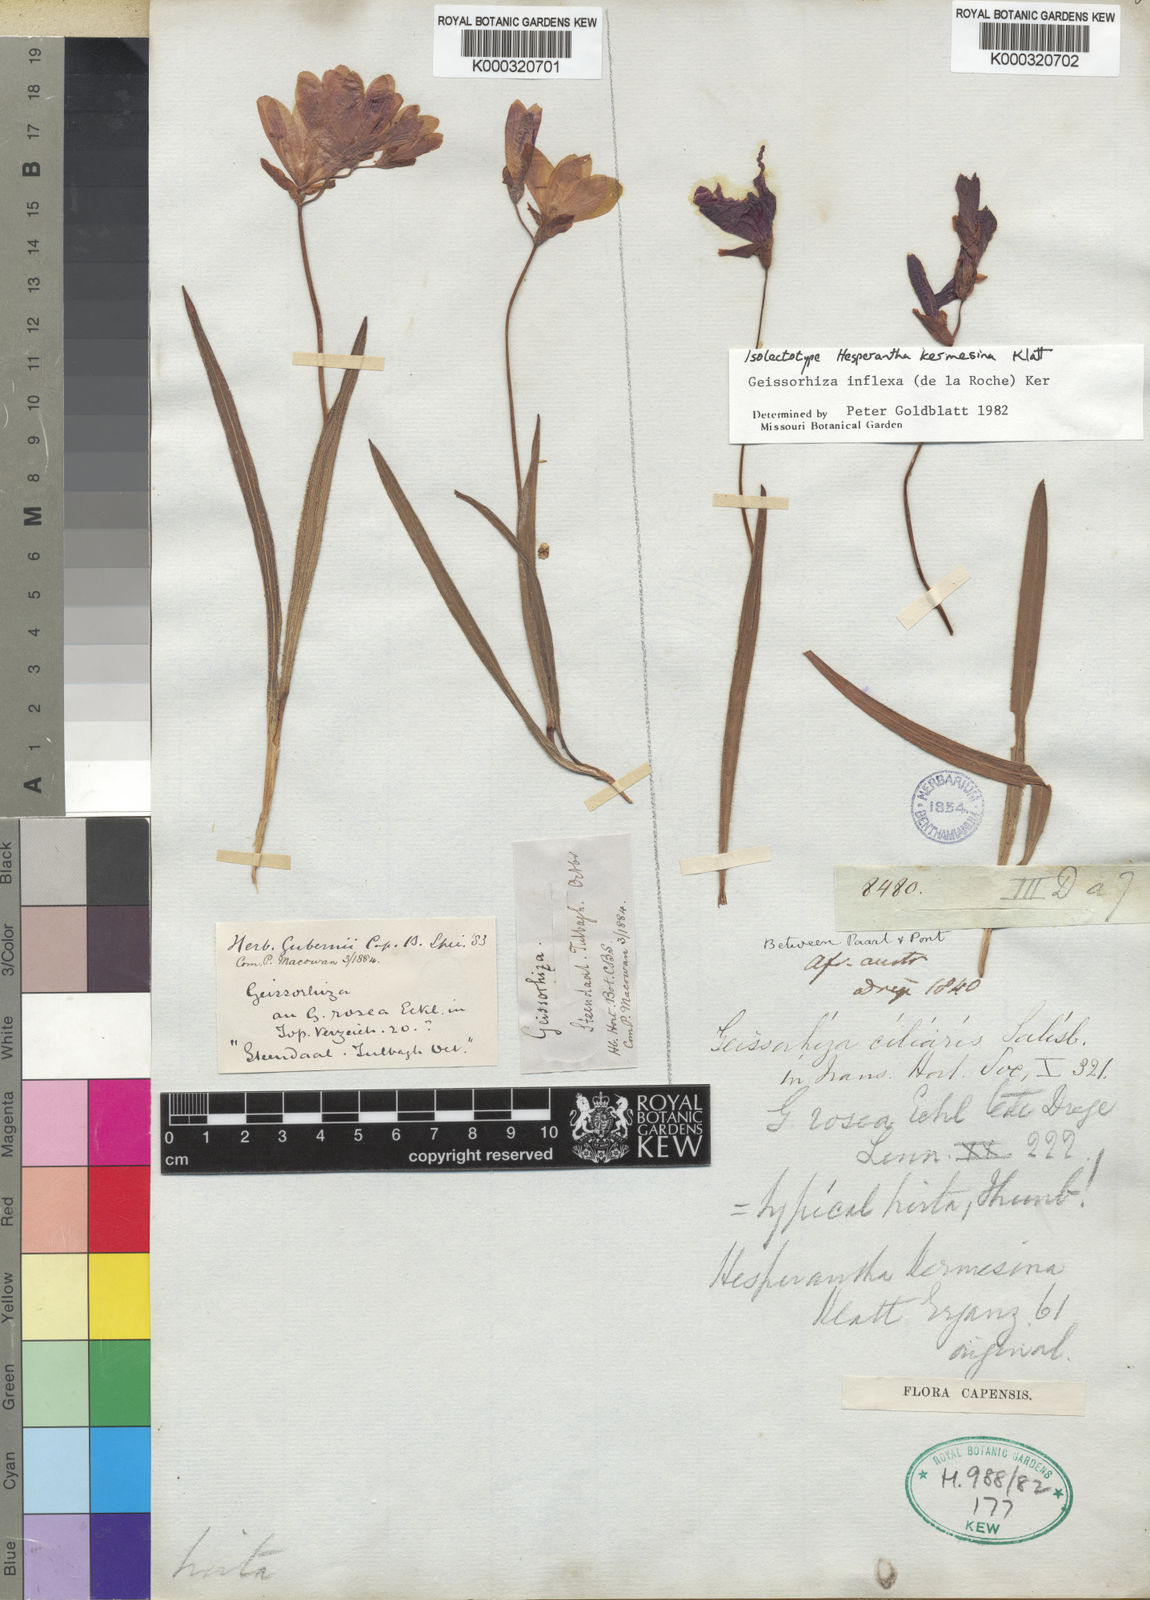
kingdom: Plantae
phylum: Tracheophyta
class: Liliopsida
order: Asparagales
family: Iridaceae
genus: Geissorhiza
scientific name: Geissorhiza inflexa
